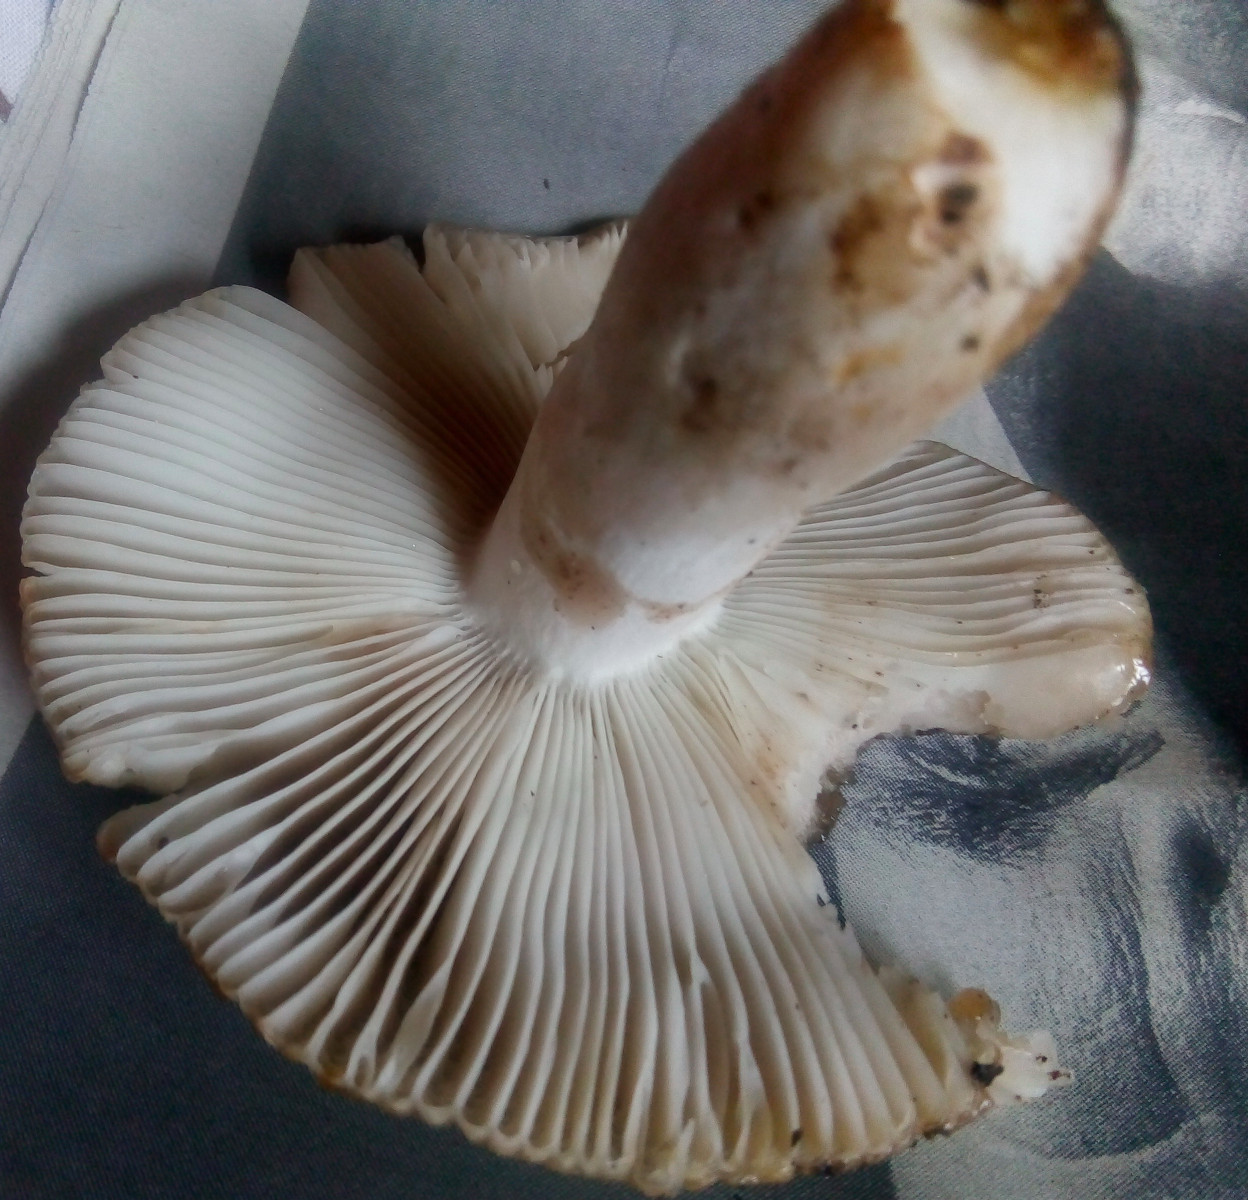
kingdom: Fungi
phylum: Basidiomycota
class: Agaricomycetes
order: Russulales
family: Russulaceae
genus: Russula
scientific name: Russula recondita
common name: mild kam-skørhat
